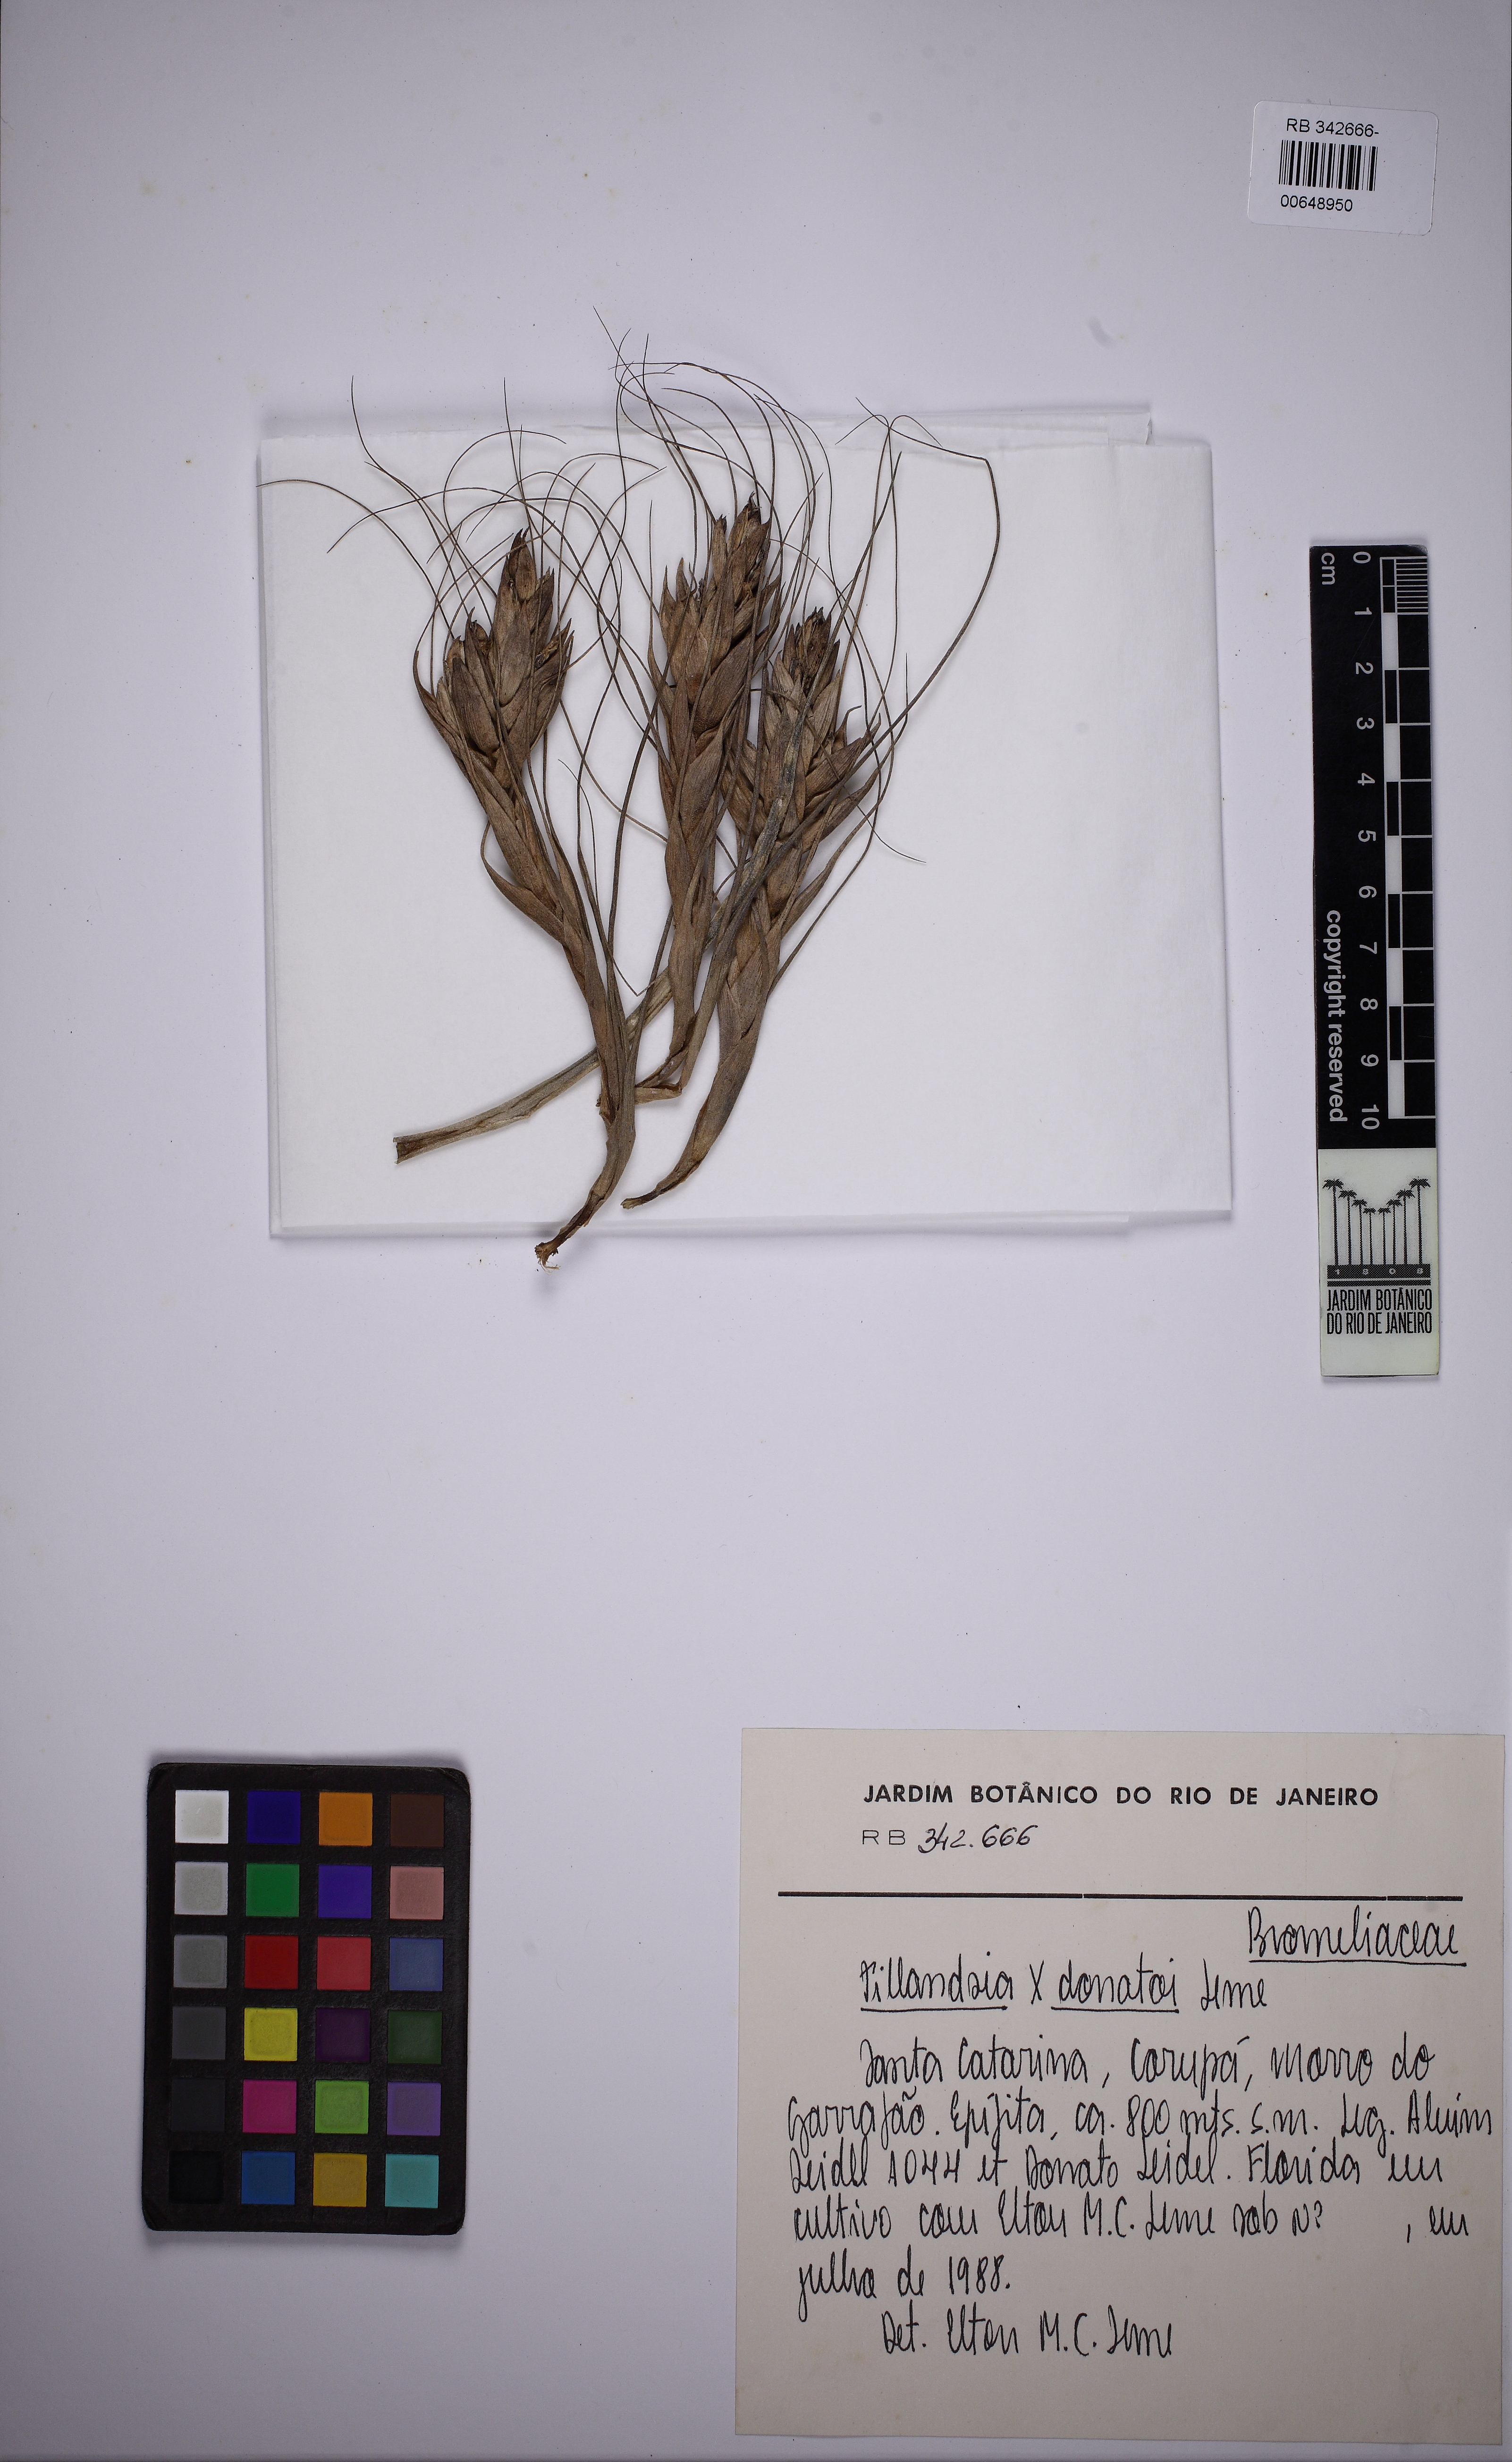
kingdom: Plantae
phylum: Tracheophyta
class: Liliopsida
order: Poales
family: Bromeliaceae
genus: Tillandsia
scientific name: Tillandsia donatoi
